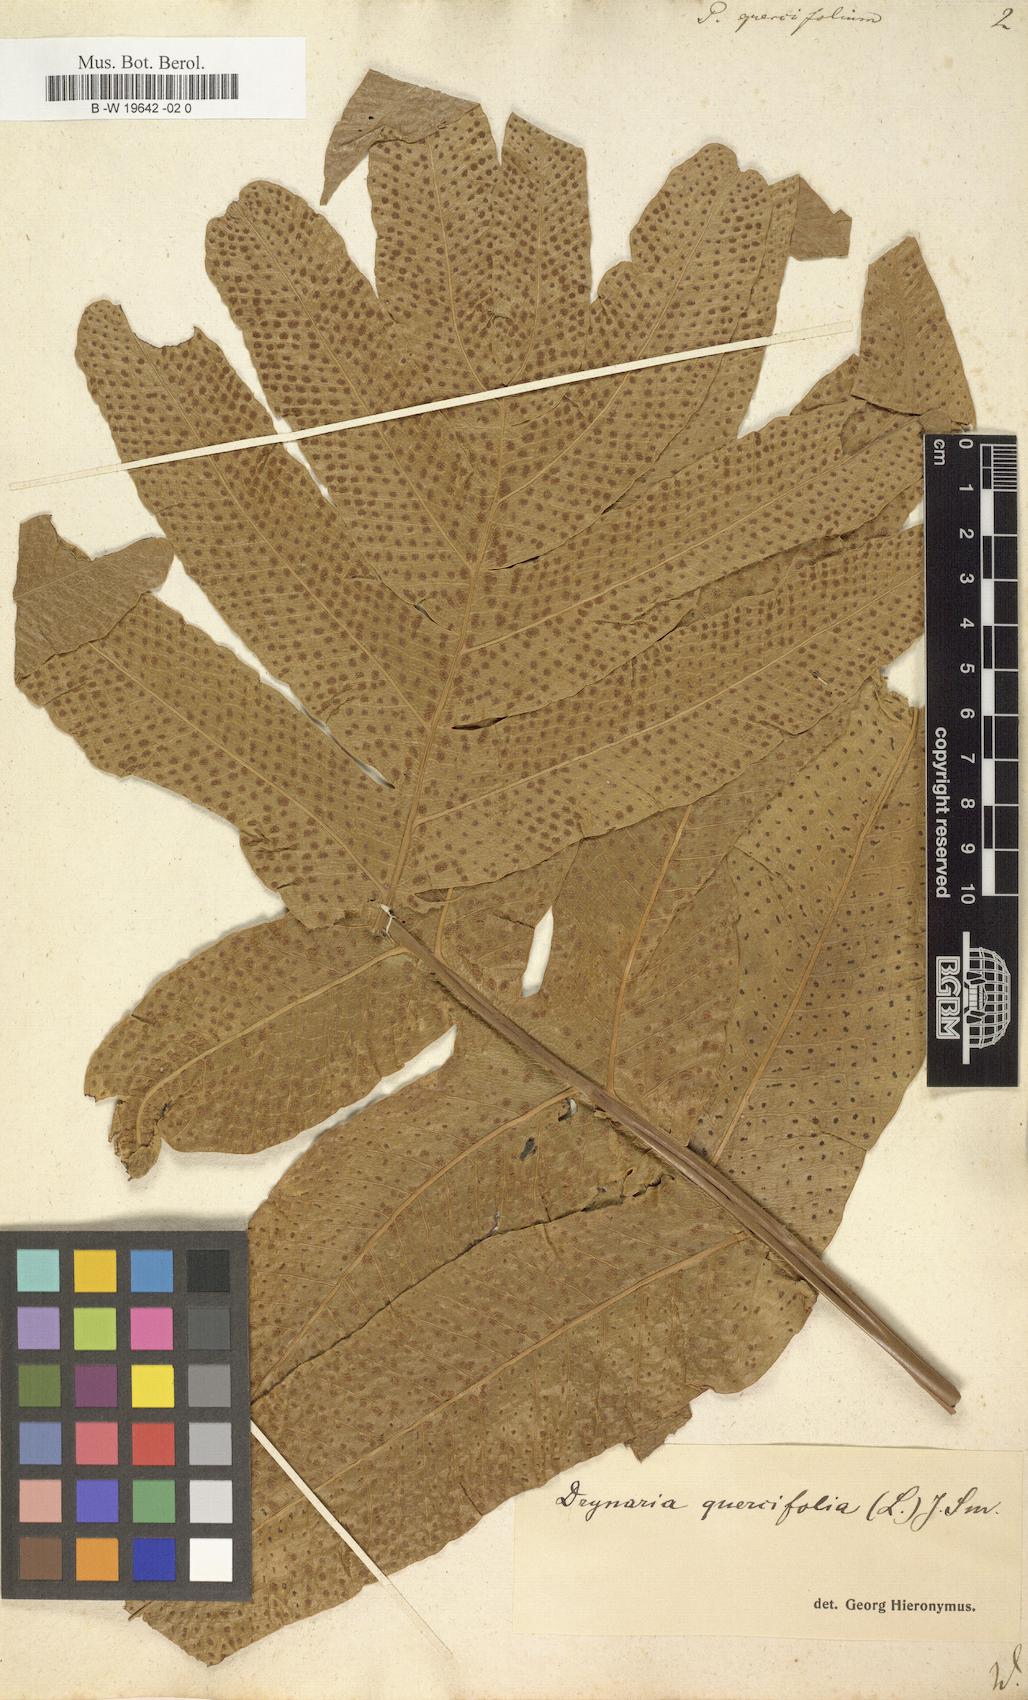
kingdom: Plantae
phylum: Tracheophyta
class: Polypodiopsida
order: Polypodiales
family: Polypodiaceae
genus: Drynaria
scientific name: Drynaria quercifolia
